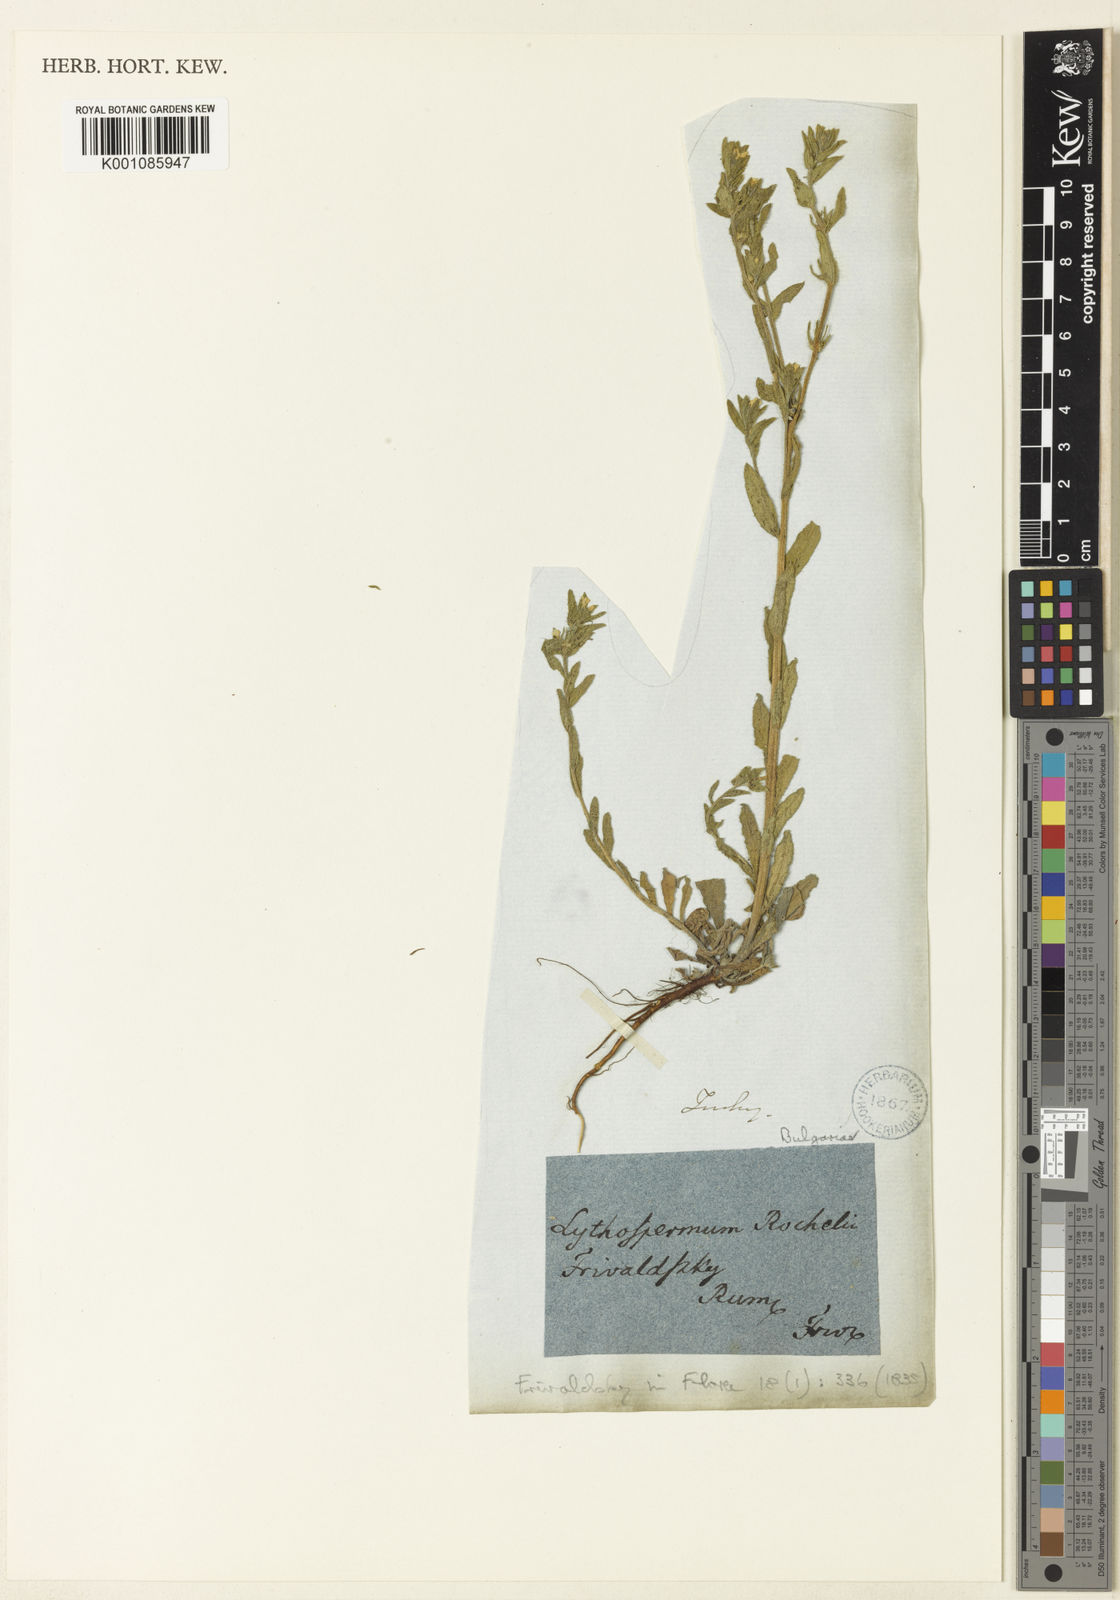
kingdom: Plantae
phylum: Tracheophyta
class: Magnoliopsida
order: Boraginales
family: Boraginaceae
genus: Buglossoides
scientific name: Buglossoides glandulosa
